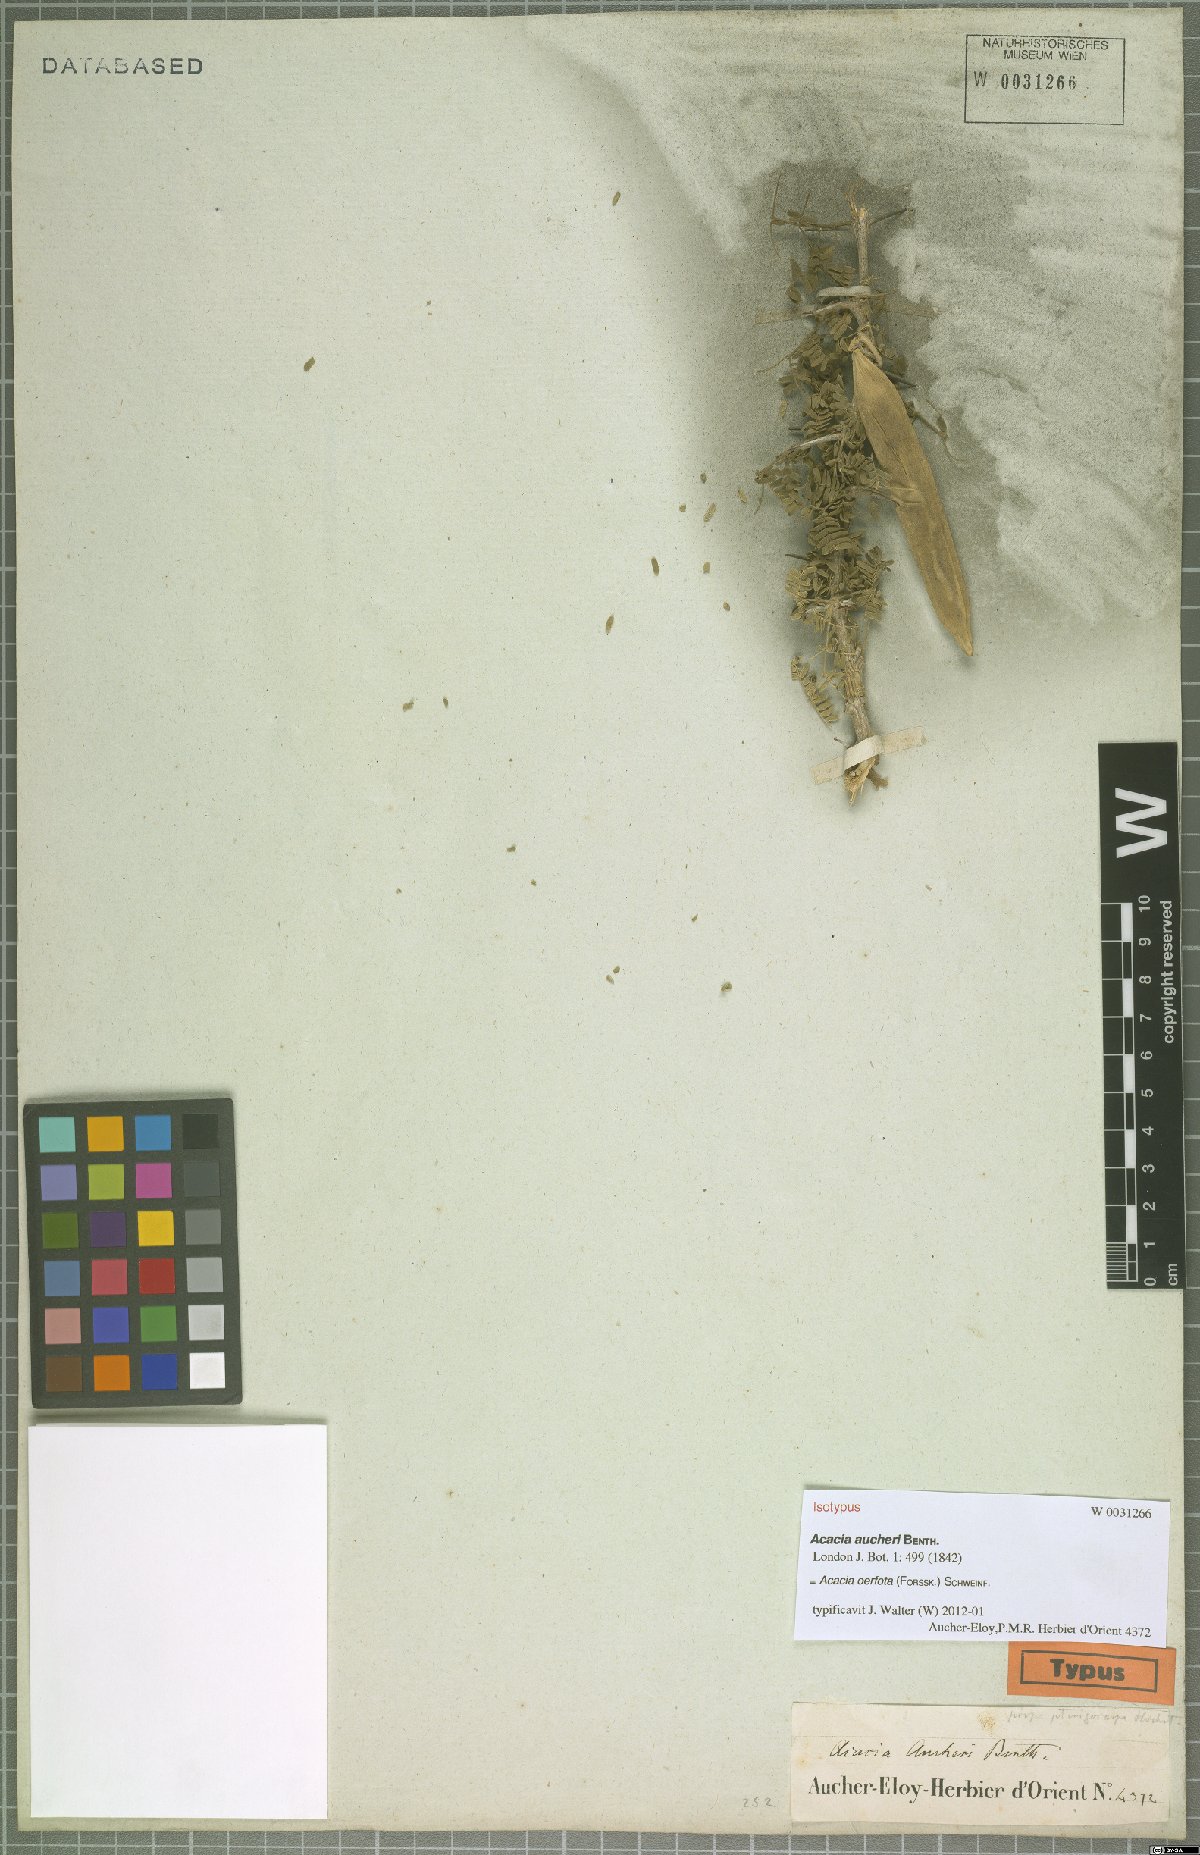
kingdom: Plantae
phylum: Tracheophyta
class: Magnoliopsida
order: Fabales
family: Fabaceae
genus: Vachellia
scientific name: Vachellia oerfota
